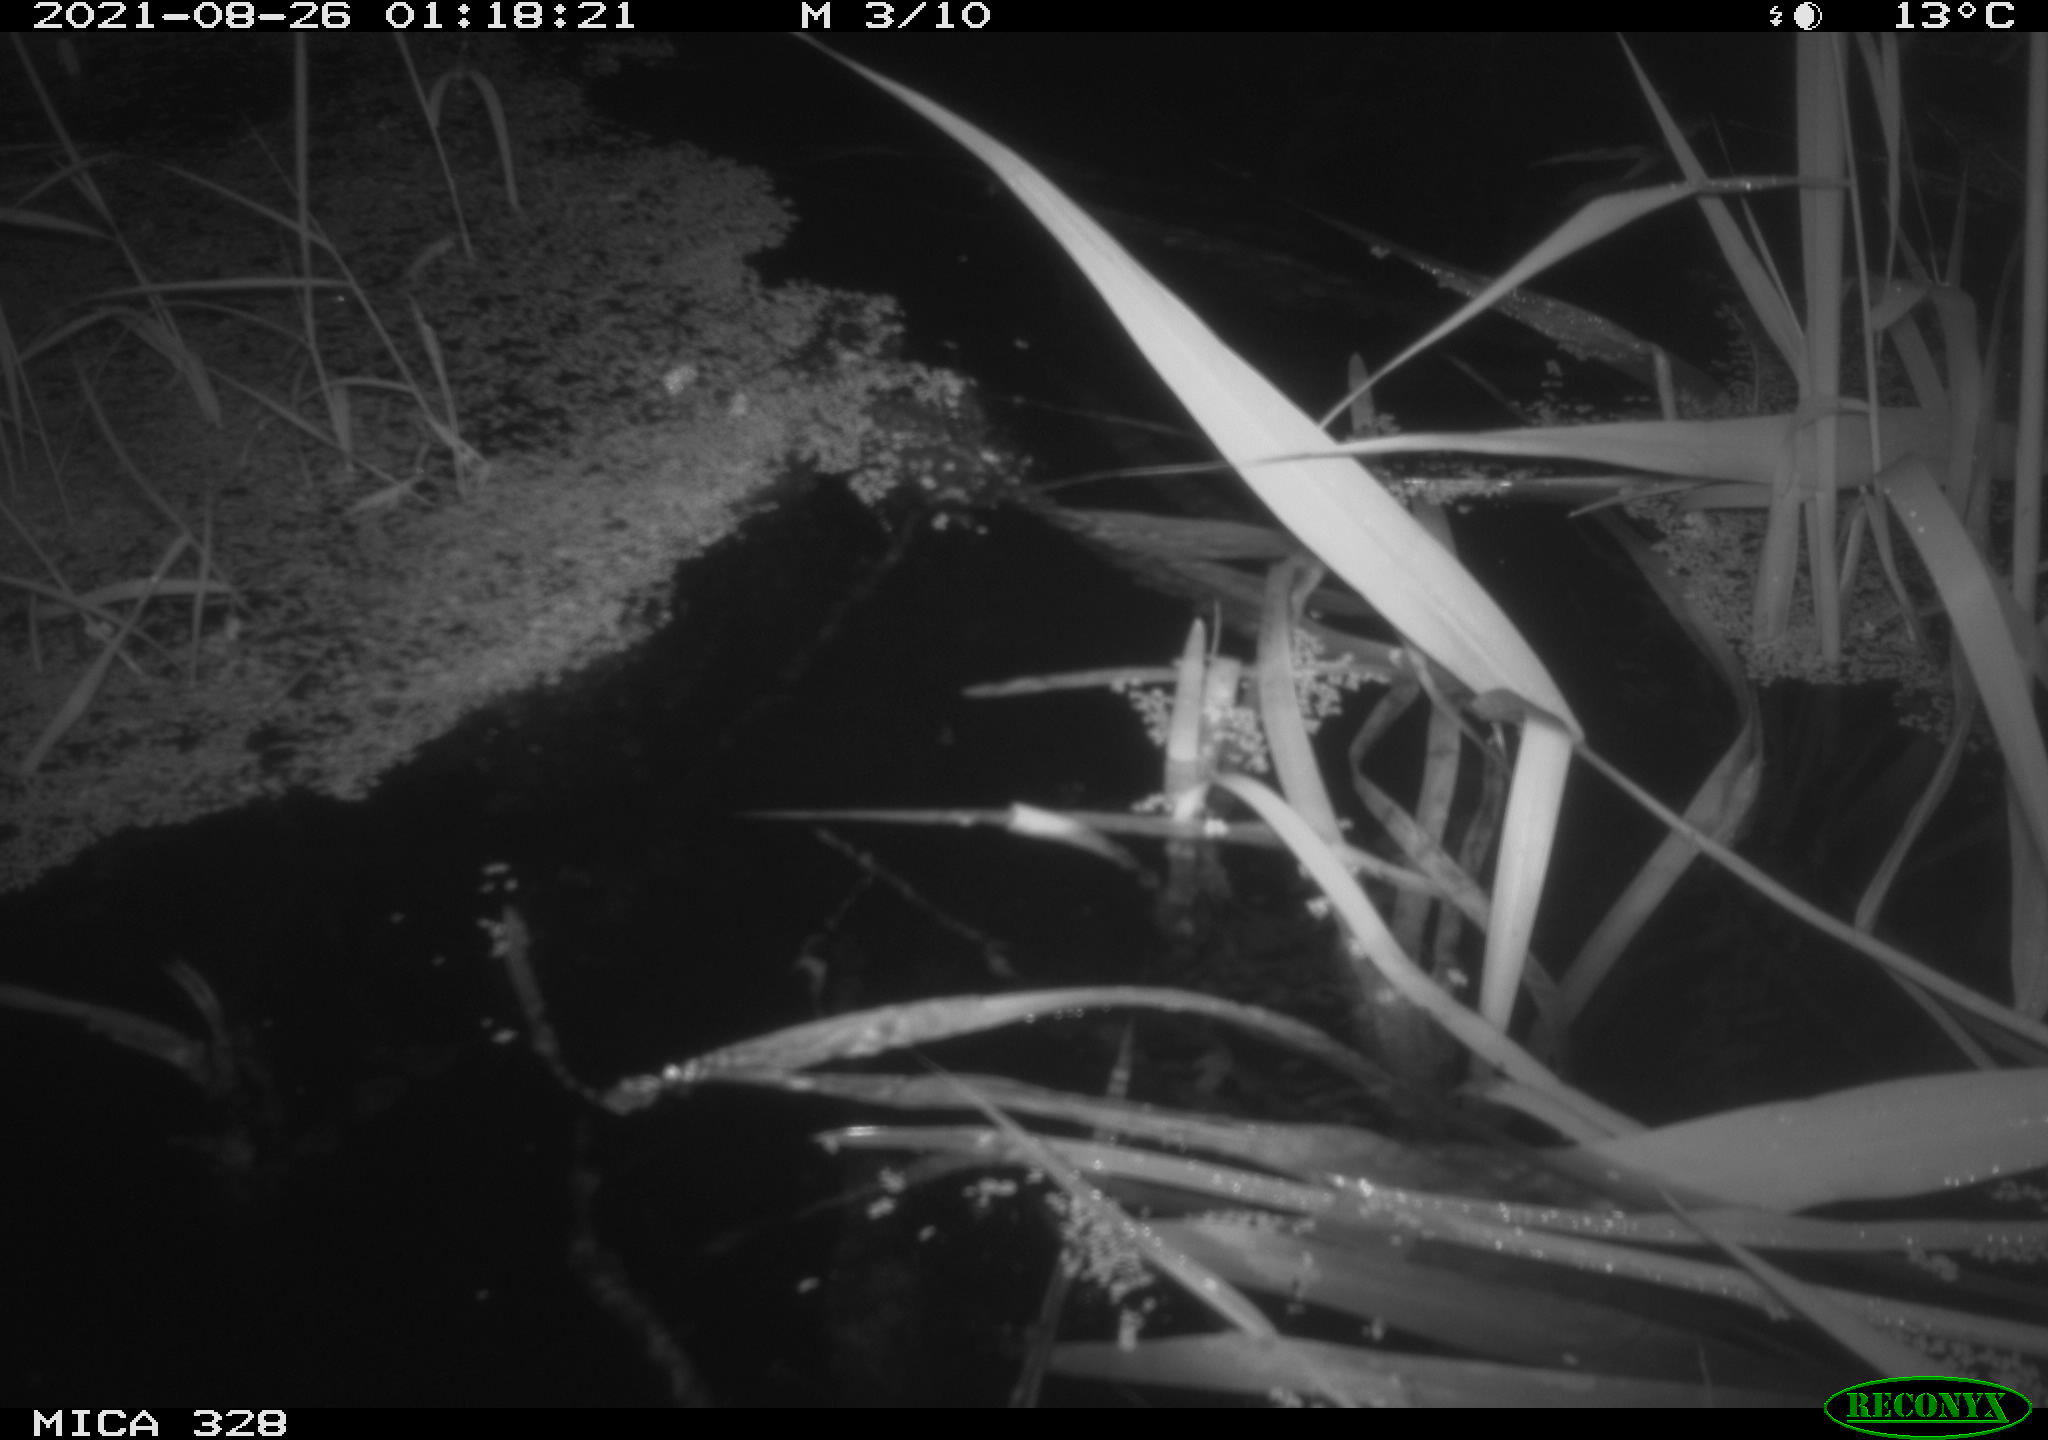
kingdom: Animalia
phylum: Chordata
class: Mammalia
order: Rodentia
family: Cricetidae
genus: Ondatra
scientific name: Ondatra zibethicus
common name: Muskrat
